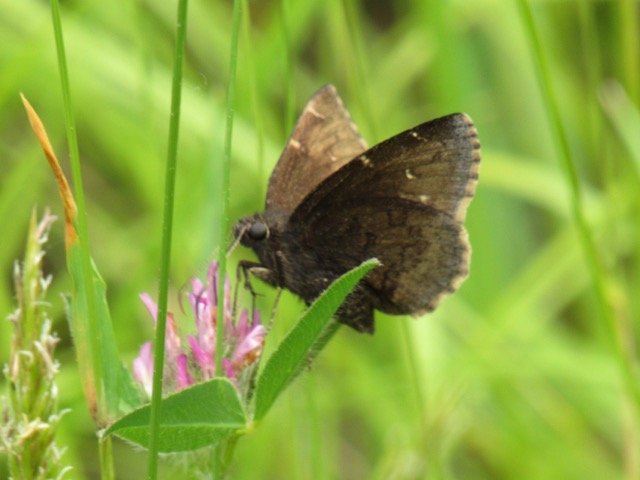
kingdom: Animalia
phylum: Arthropoda
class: Insecta
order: Lepidoptera
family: Hesperiidae
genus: Autochton
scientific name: Autochton
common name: Northern Cloudywing
